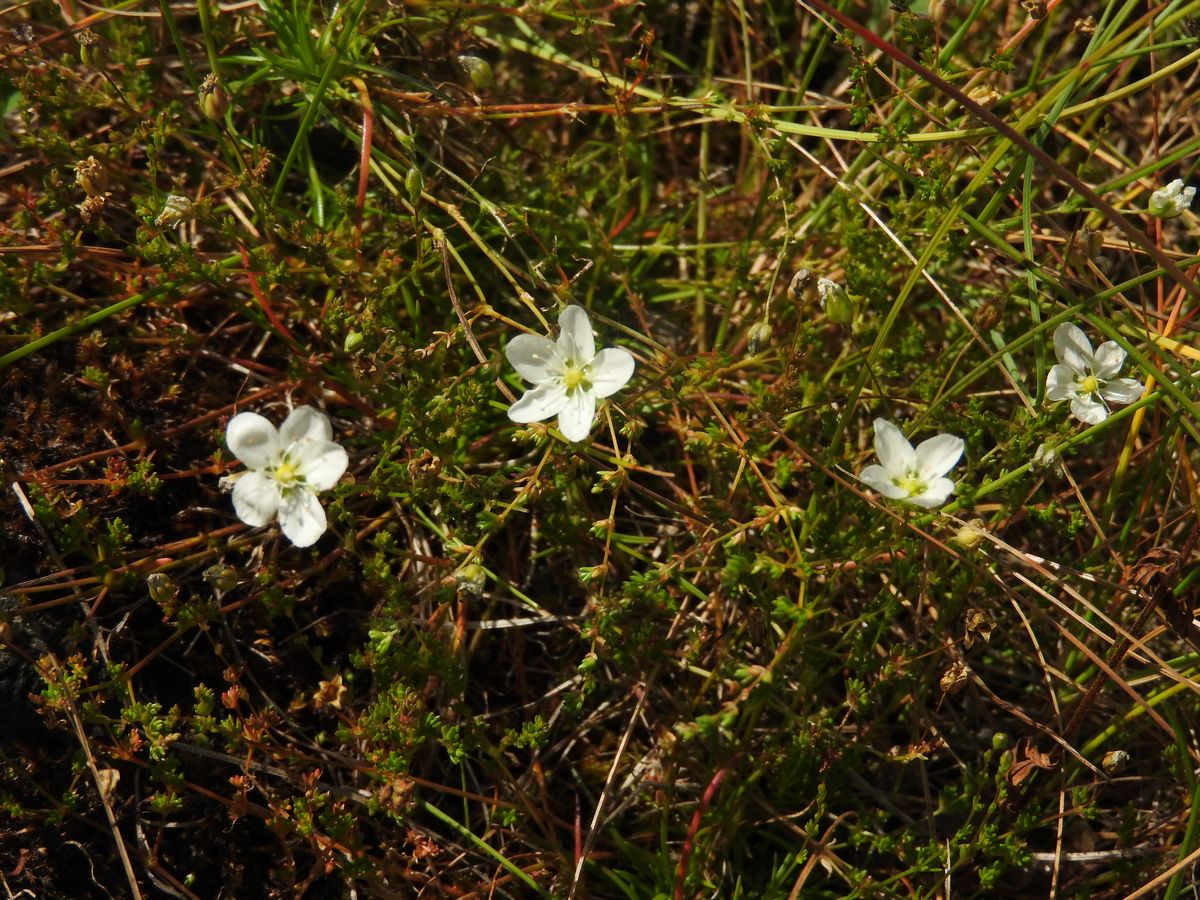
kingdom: Plantae
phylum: Tracheophyta
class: Magnoliopsida
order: Caryophyllales
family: Caryophyllaceae
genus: Sagina
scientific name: Sagina nodosa
